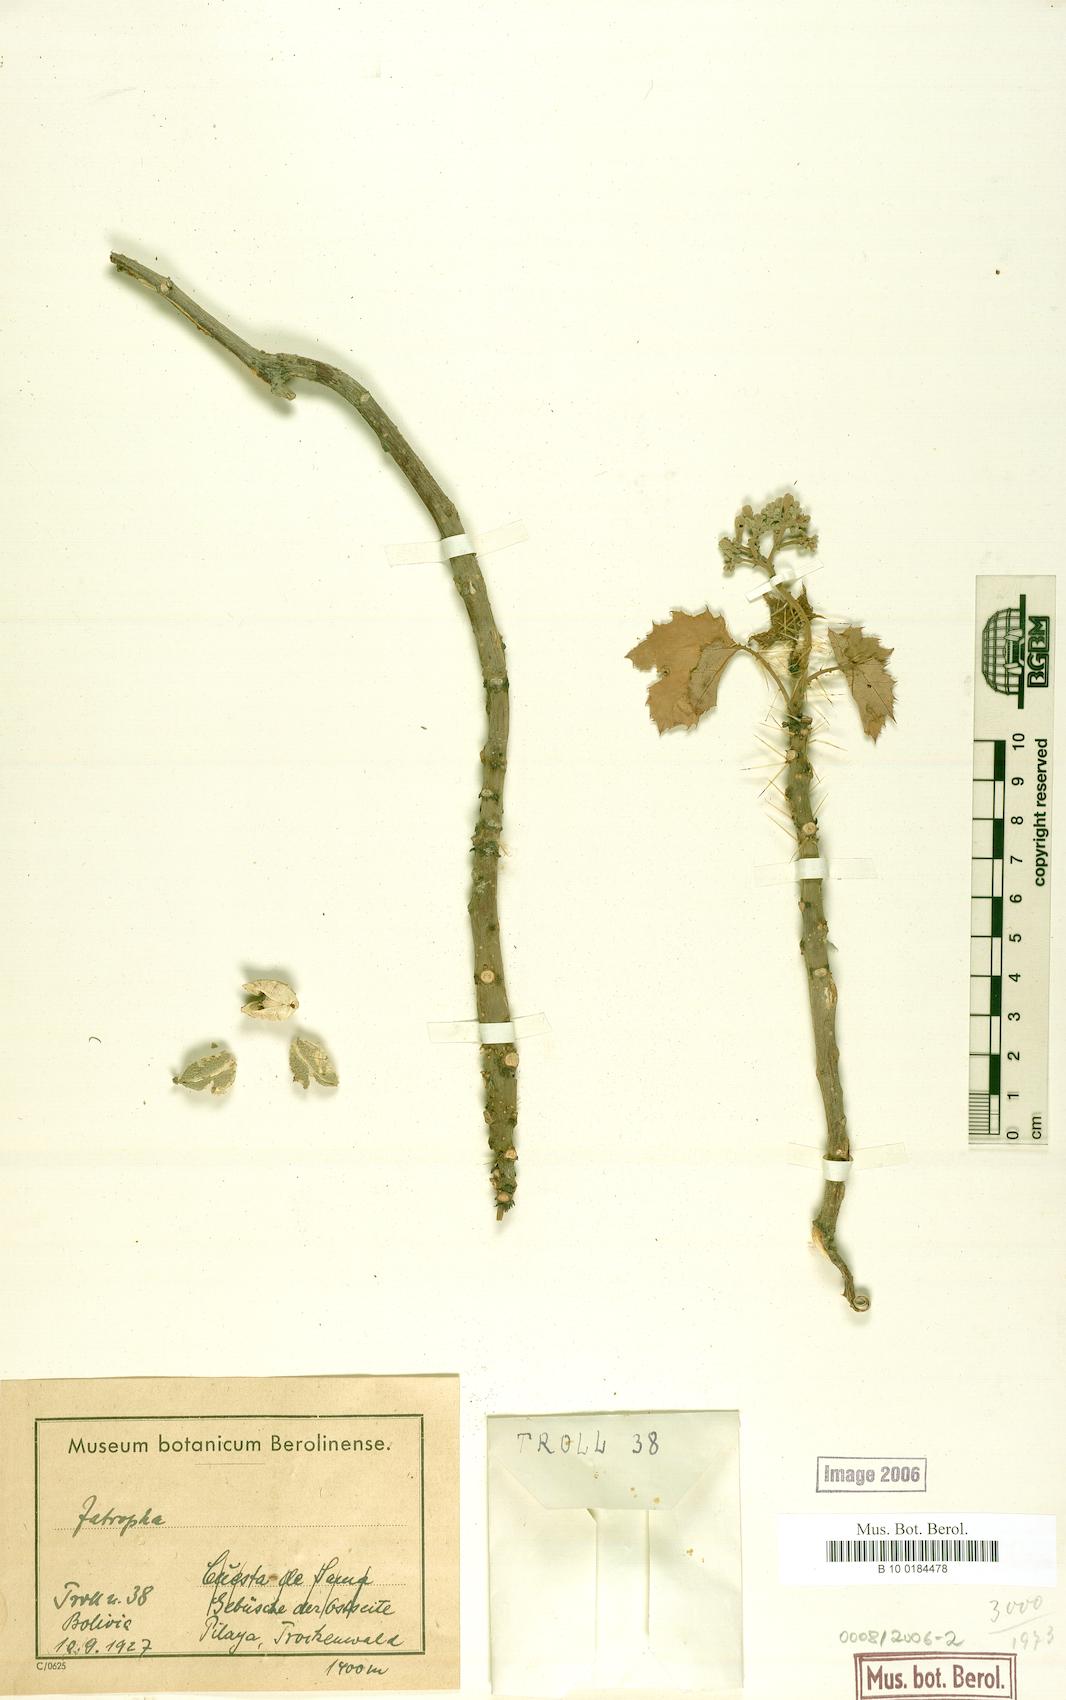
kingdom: Plantae
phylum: Tracheophyta
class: Magnoliopsida
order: Malpighiales
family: Euphorbiaceae
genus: Cnidoscolus
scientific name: Cnidoscolus cnicodendron
